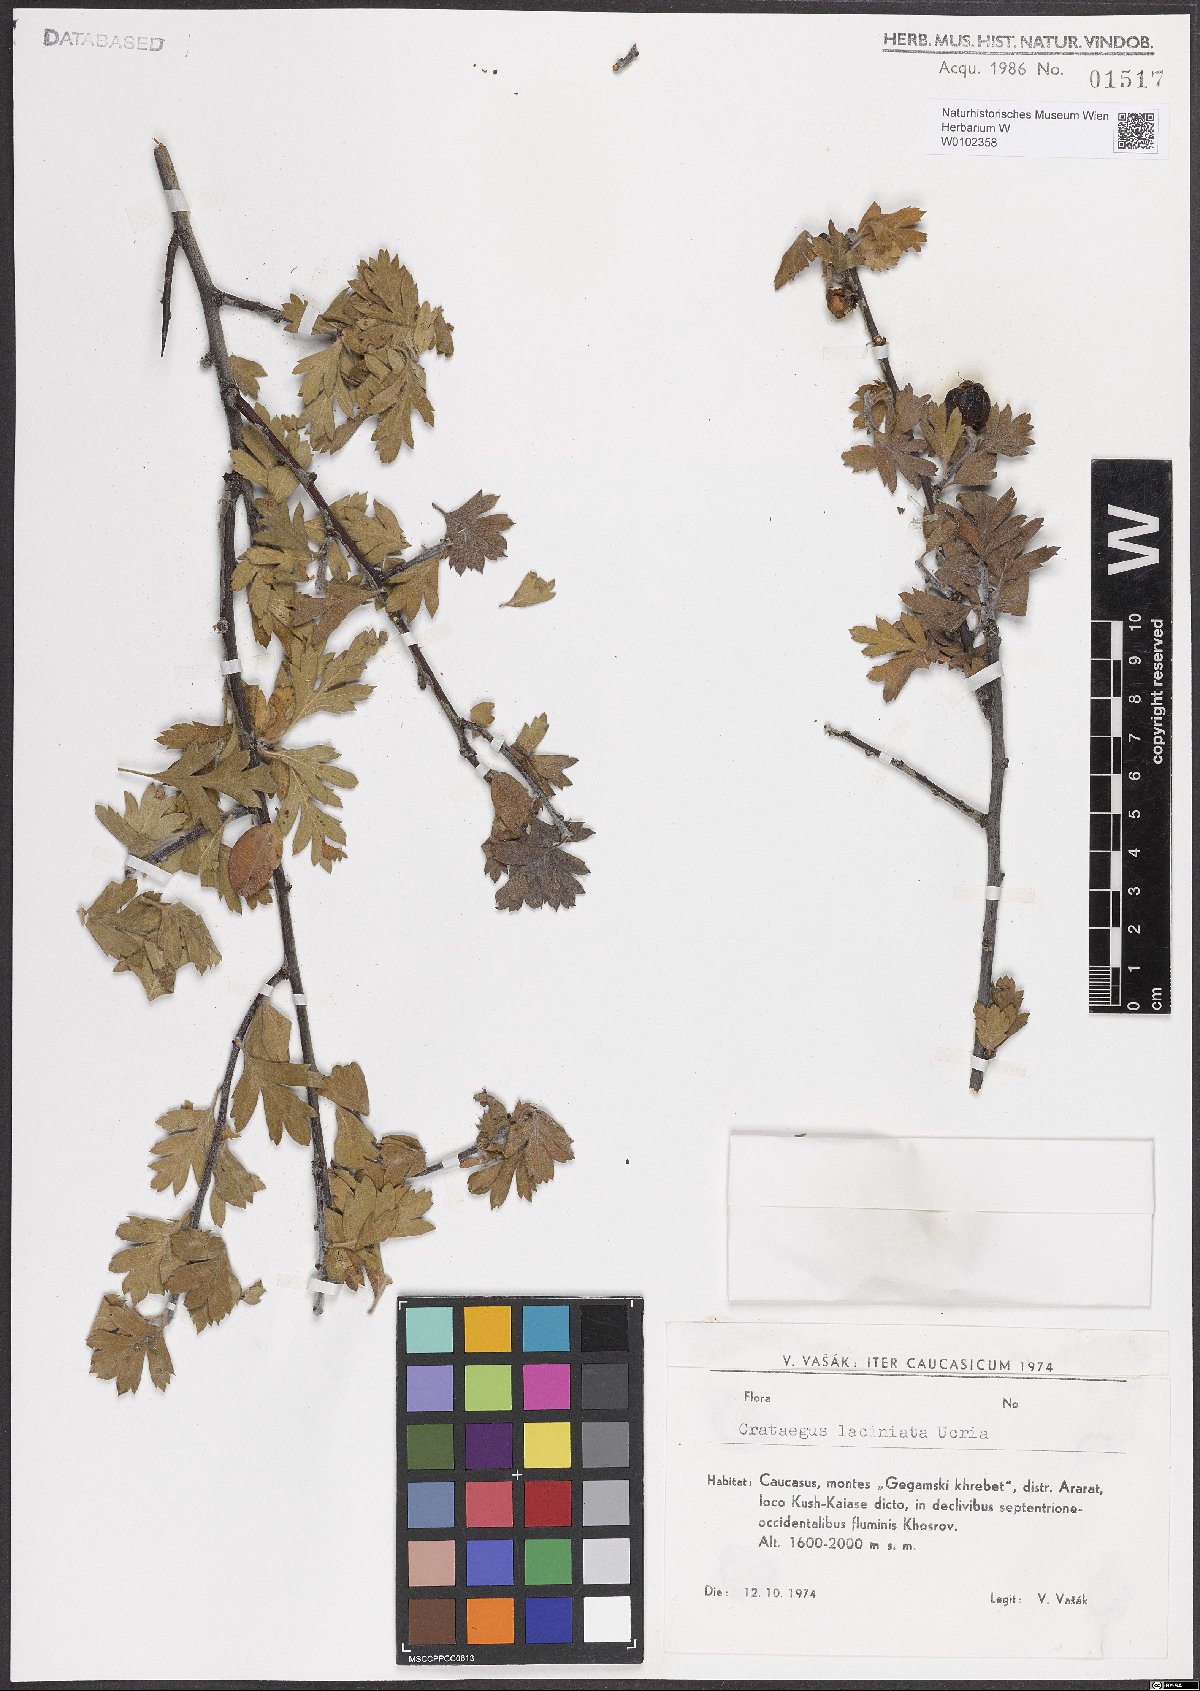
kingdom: Plantae
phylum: Tracheophyta
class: Magnoliopsida
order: Rosales
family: Rosaceae
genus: Crataegus
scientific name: Crataegus laciniata
